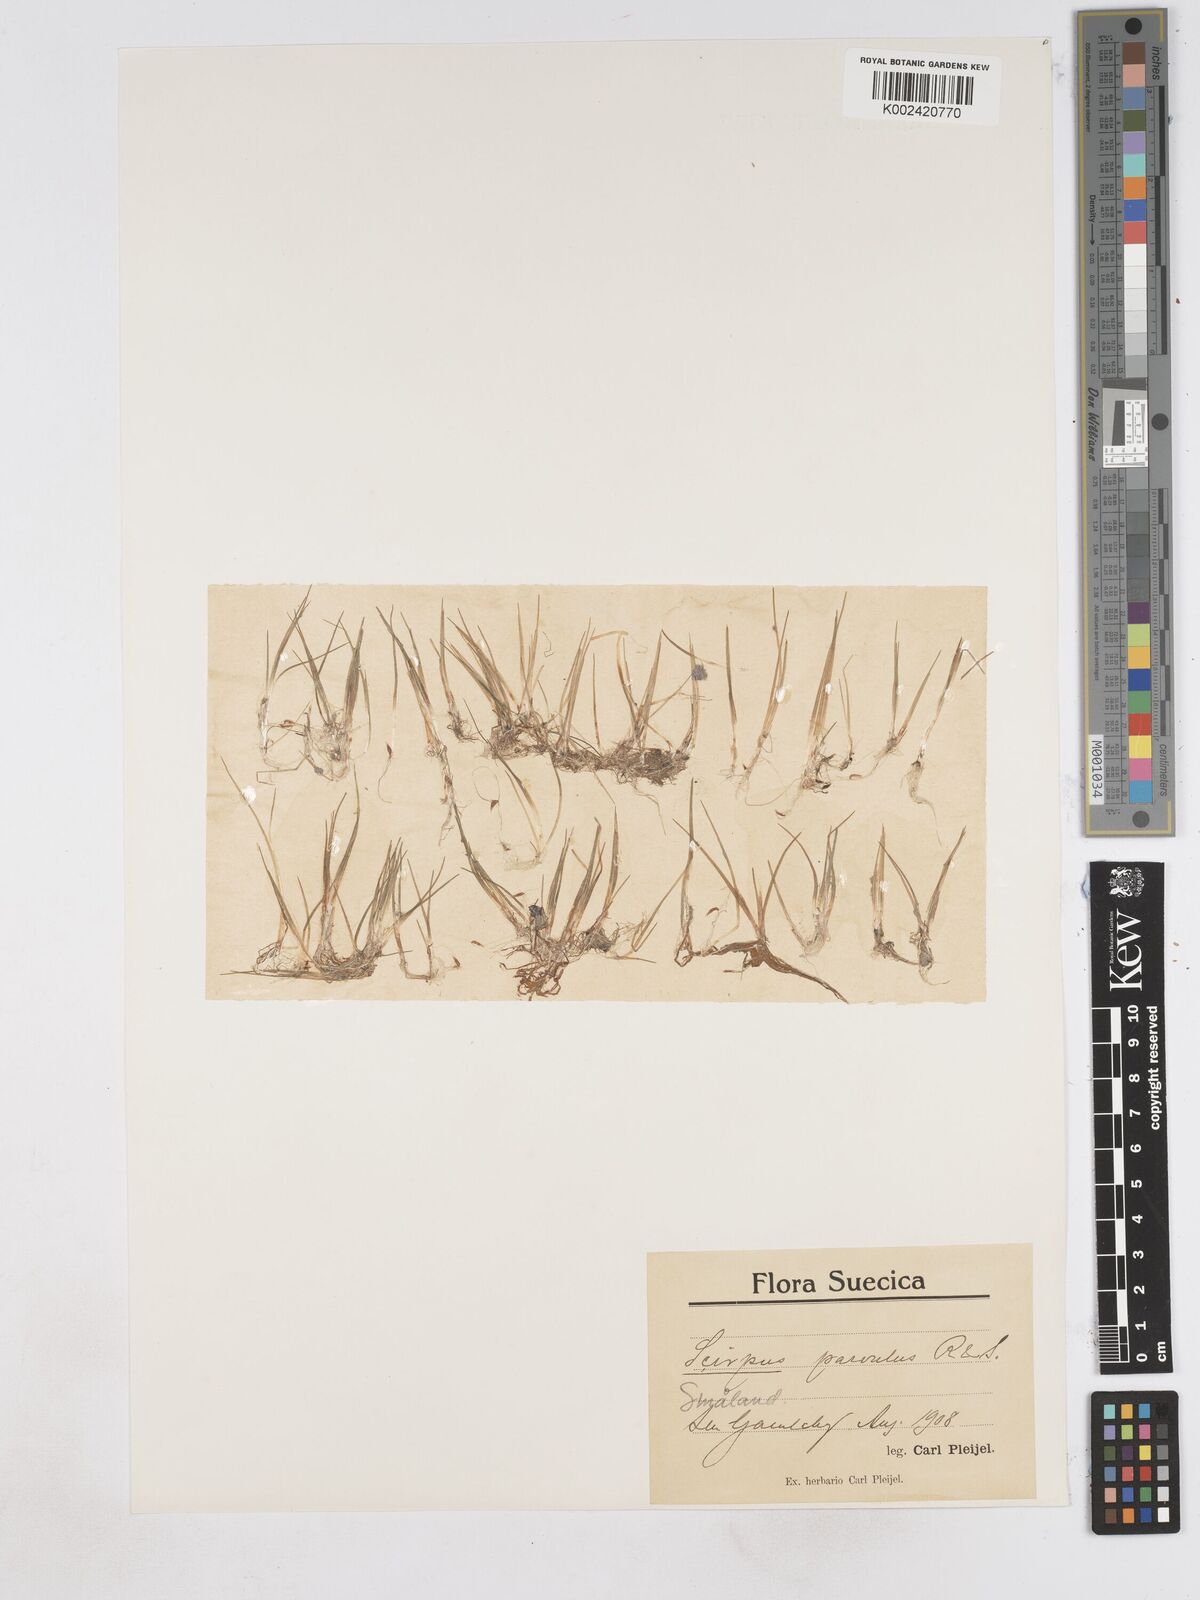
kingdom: Plantae
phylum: Tracheophyta
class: Liliopsida
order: Poales
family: Cyperaceae
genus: Eleocharis
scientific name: Eleocharis parvula
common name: Dwarf spike-rush
